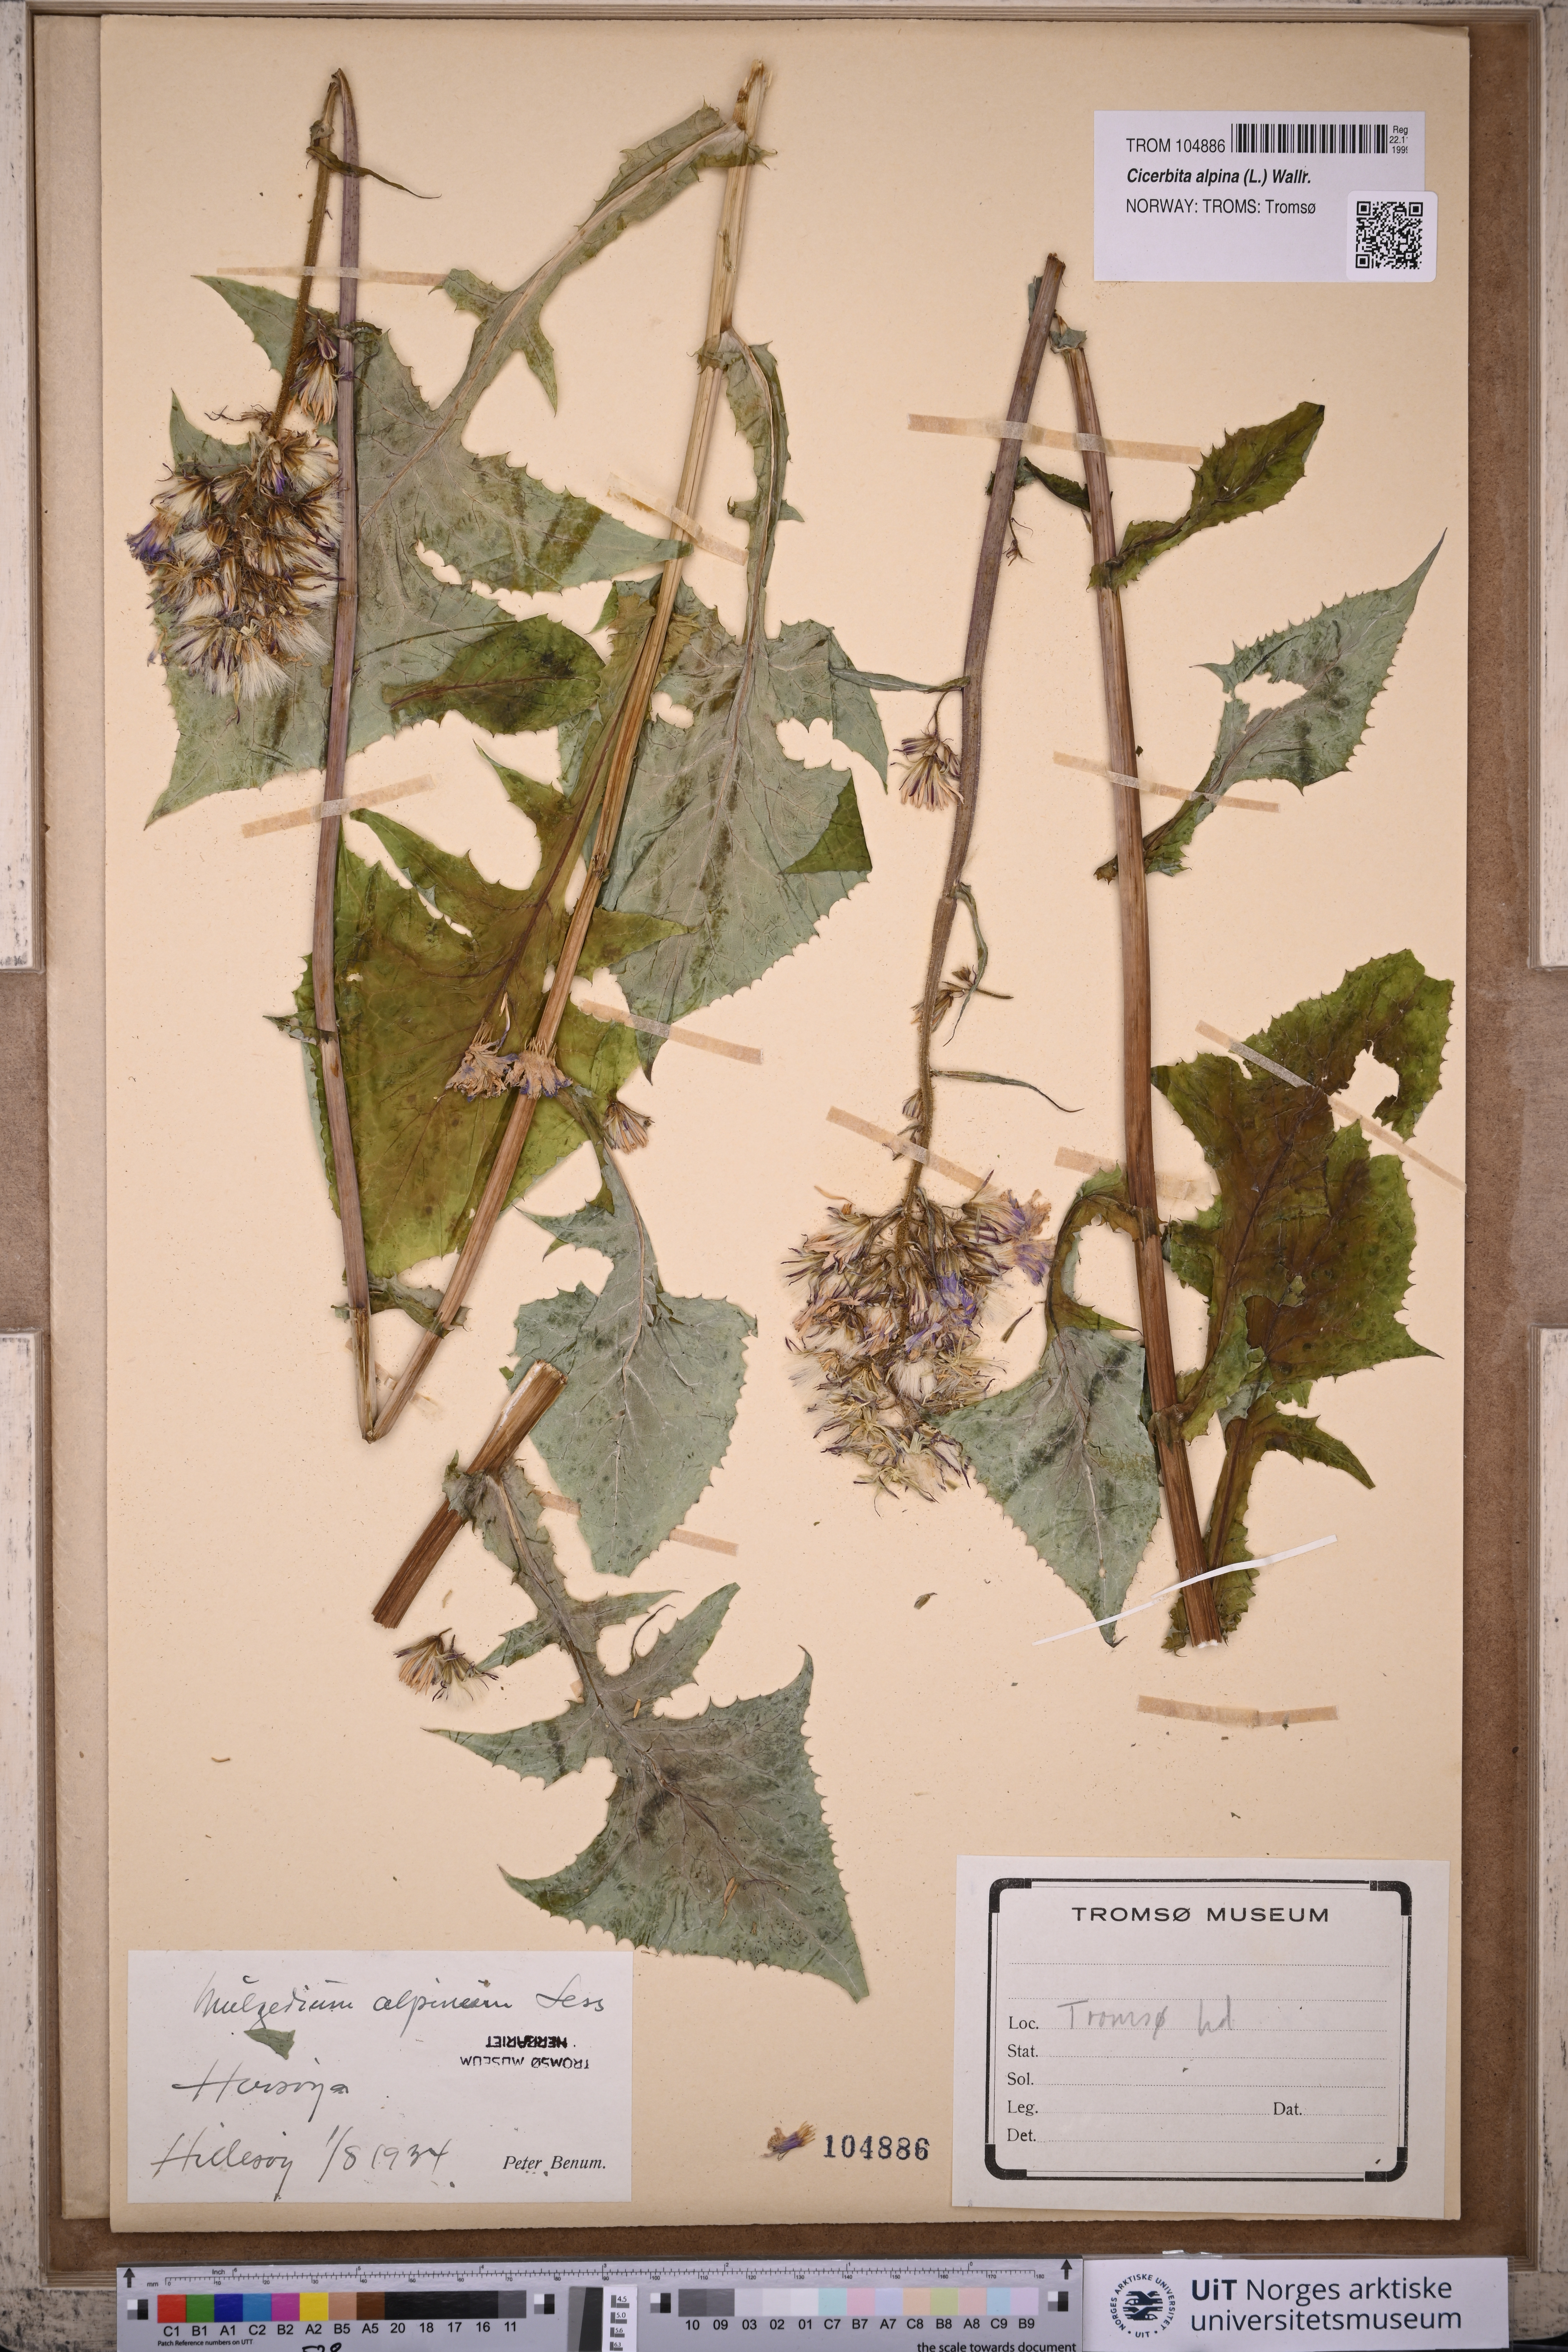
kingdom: Plantae
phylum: Tracheophyta
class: Magnoliopsida
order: Asterales
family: Asteraceae
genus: Cicerbita
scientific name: Cicerbita alpina
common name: Alpine blue-sow-thistle
